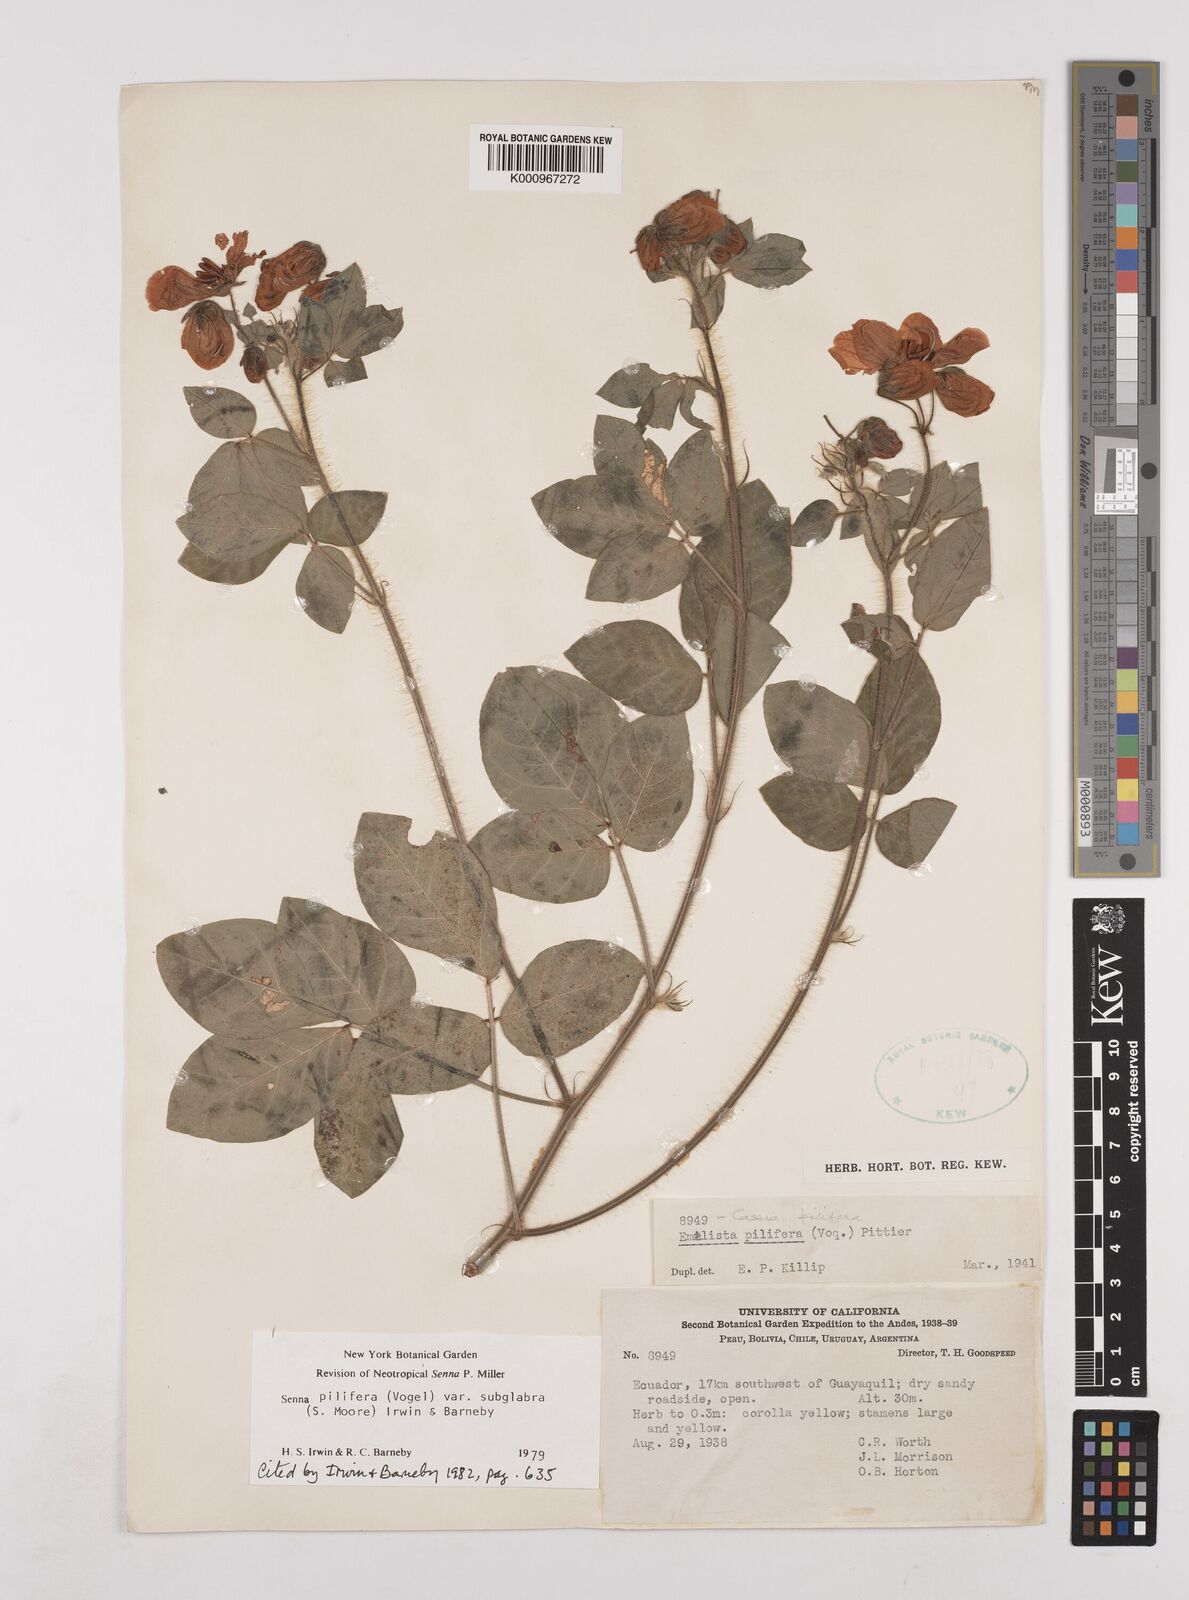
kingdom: Plantae
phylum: Tracheophyta
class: Magnoliopsida
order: Fabales
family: Fabaceae
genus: Senna
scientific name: Senna pilifera
